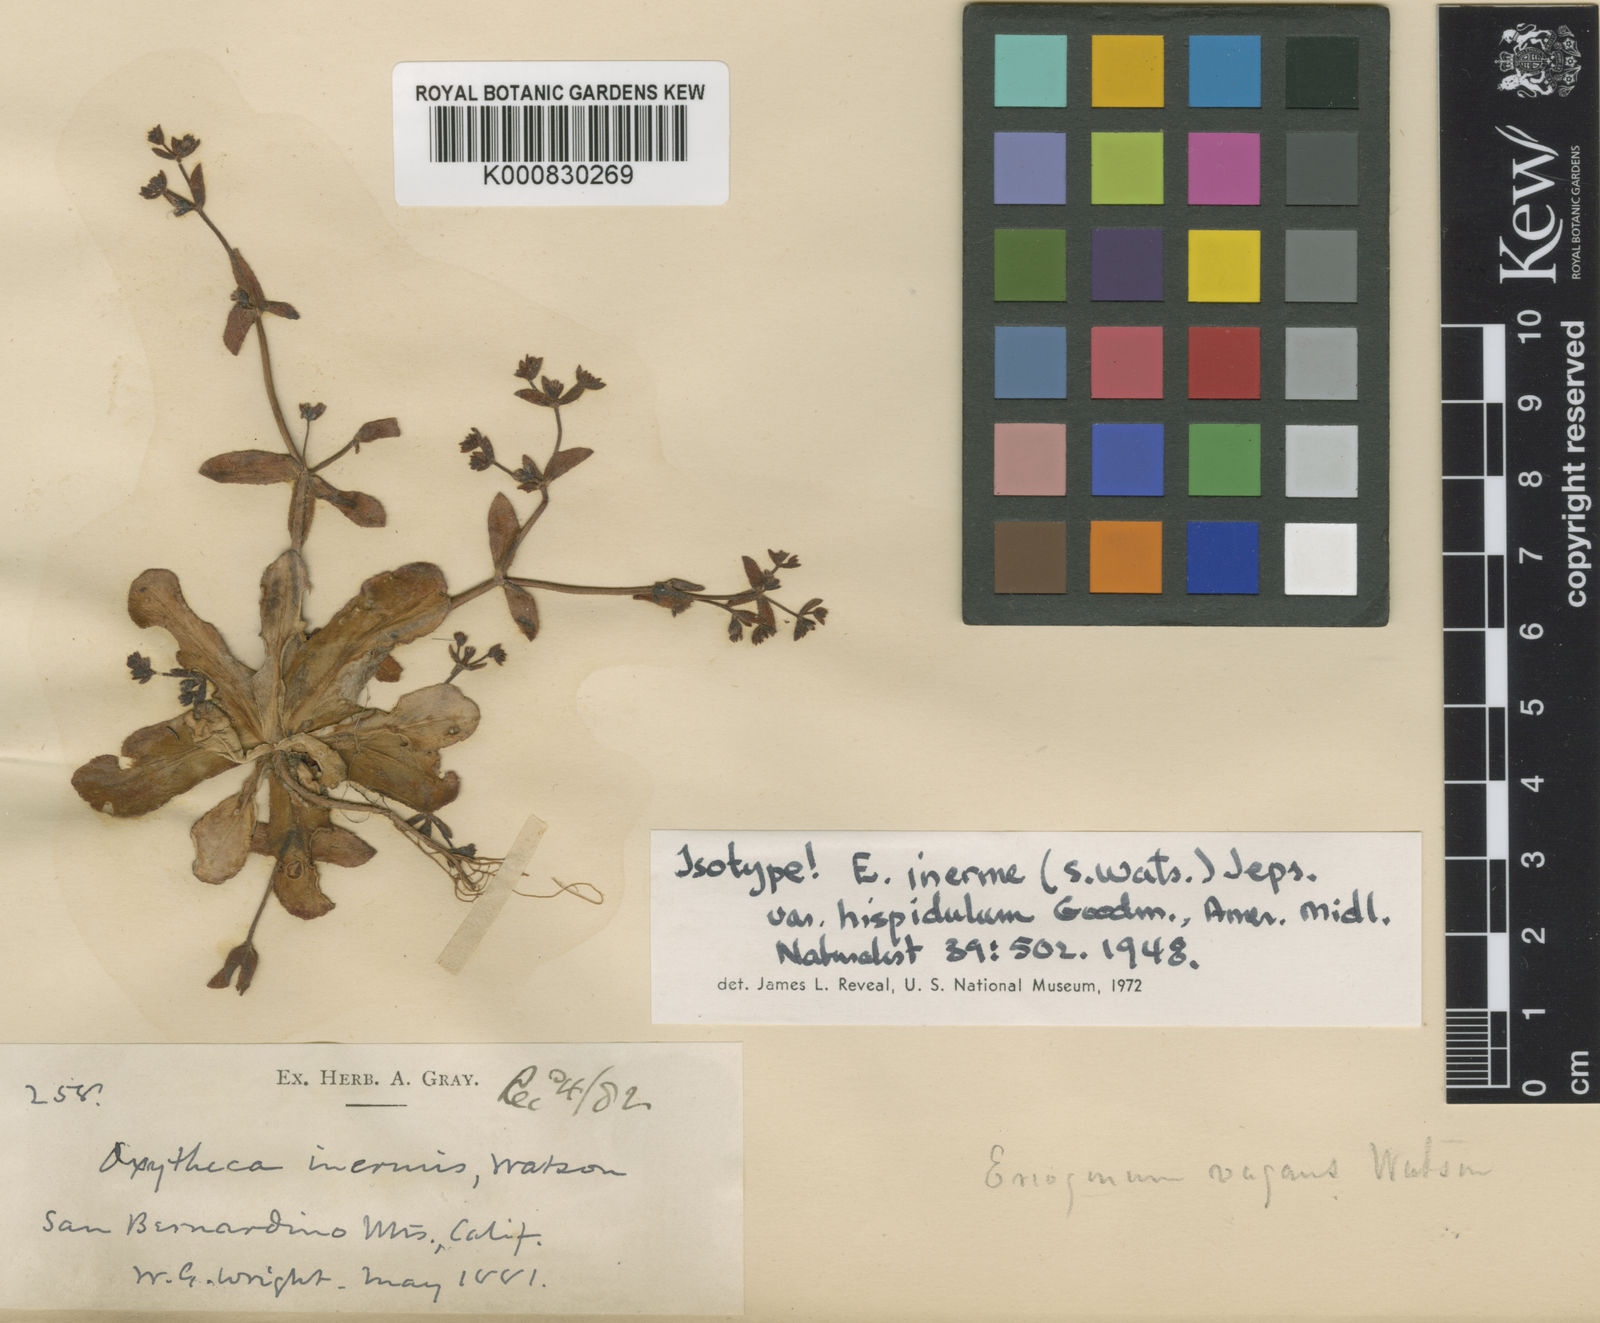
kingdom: Plantae
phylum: Tracheophyta
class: Magnoliopsida
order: Caryophyllales
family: Polygonaceae
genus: Eriogonum
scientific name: Eriogonum inerme
